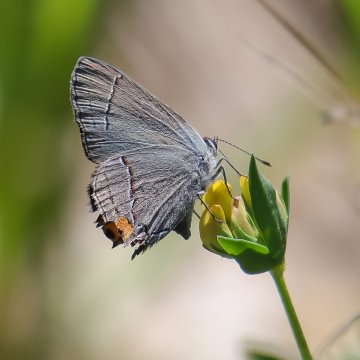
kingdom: Animalia
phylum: Arthropoda
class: Insecta
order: Lepidoptera
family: Lycaenidae
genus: Strymon
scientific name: Strymon melinus
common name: Gray Hairstreak
